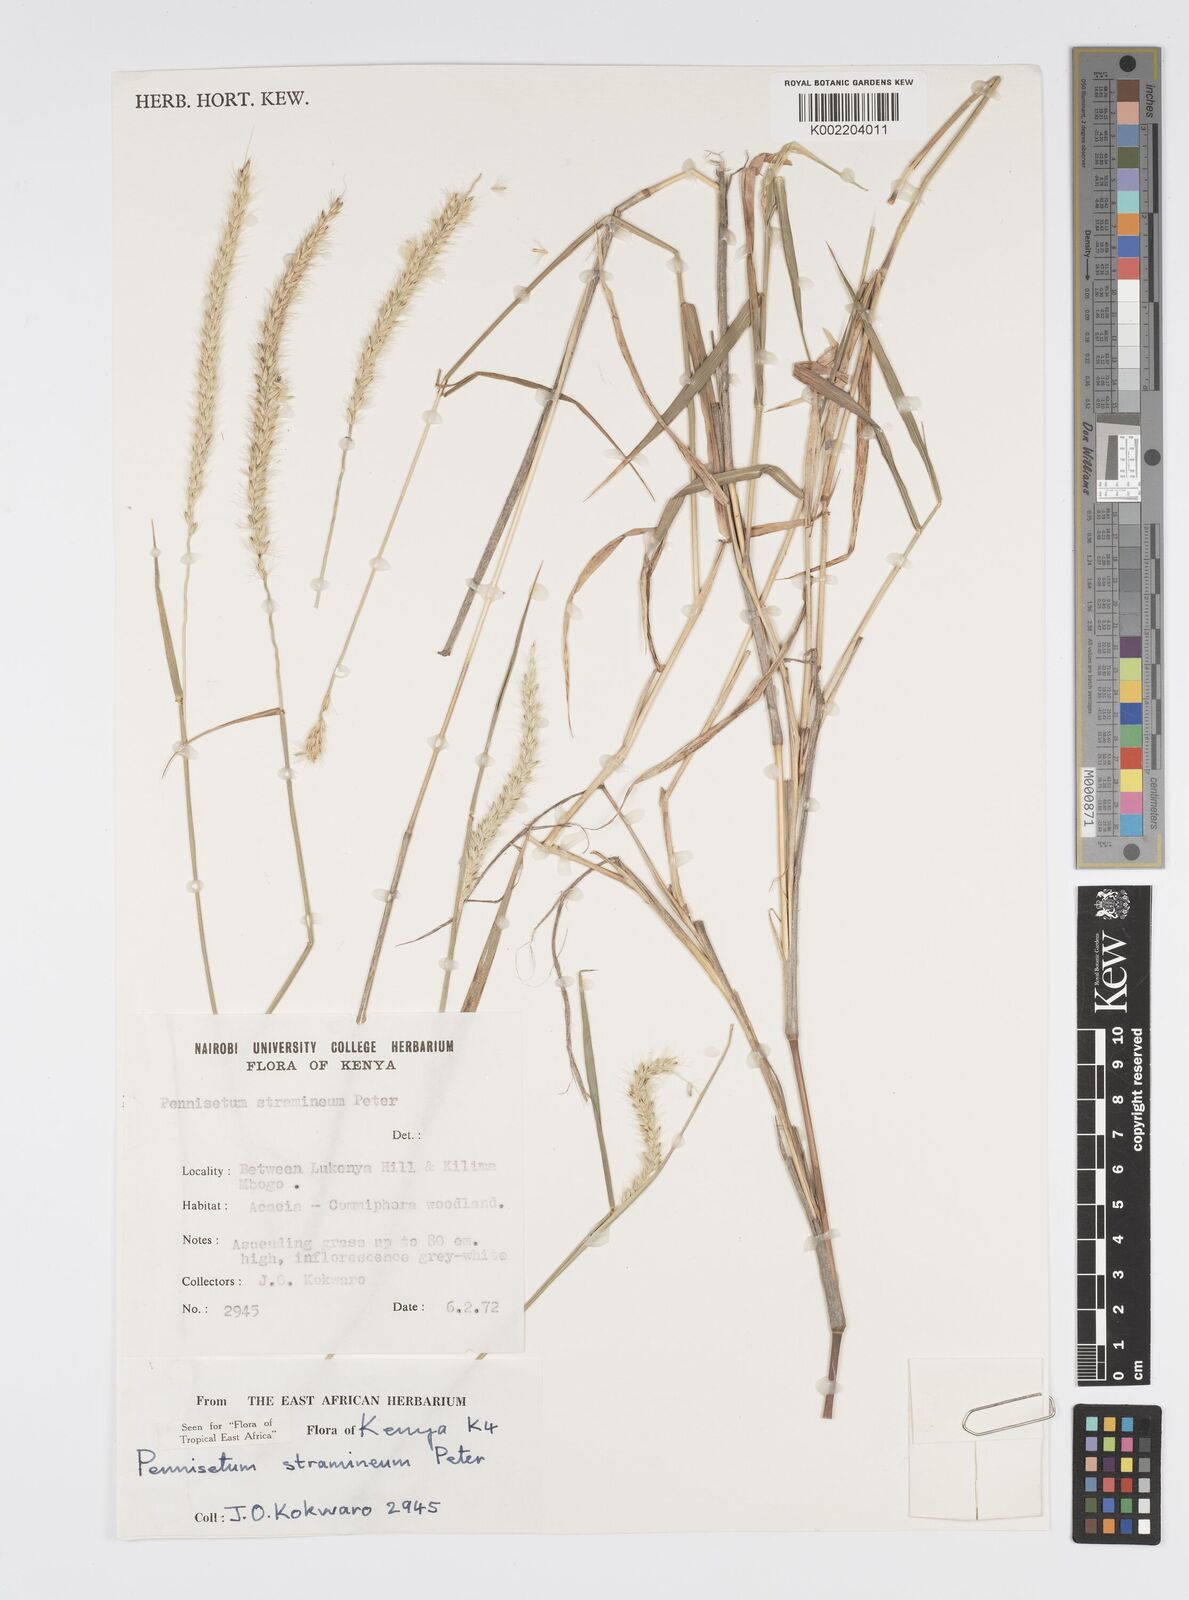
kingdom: Plantae
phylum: Tracheophyta
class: Liliopsida
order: Poales
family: Poaceae
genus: Cenchrus
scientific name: Cenchrus stramineus
